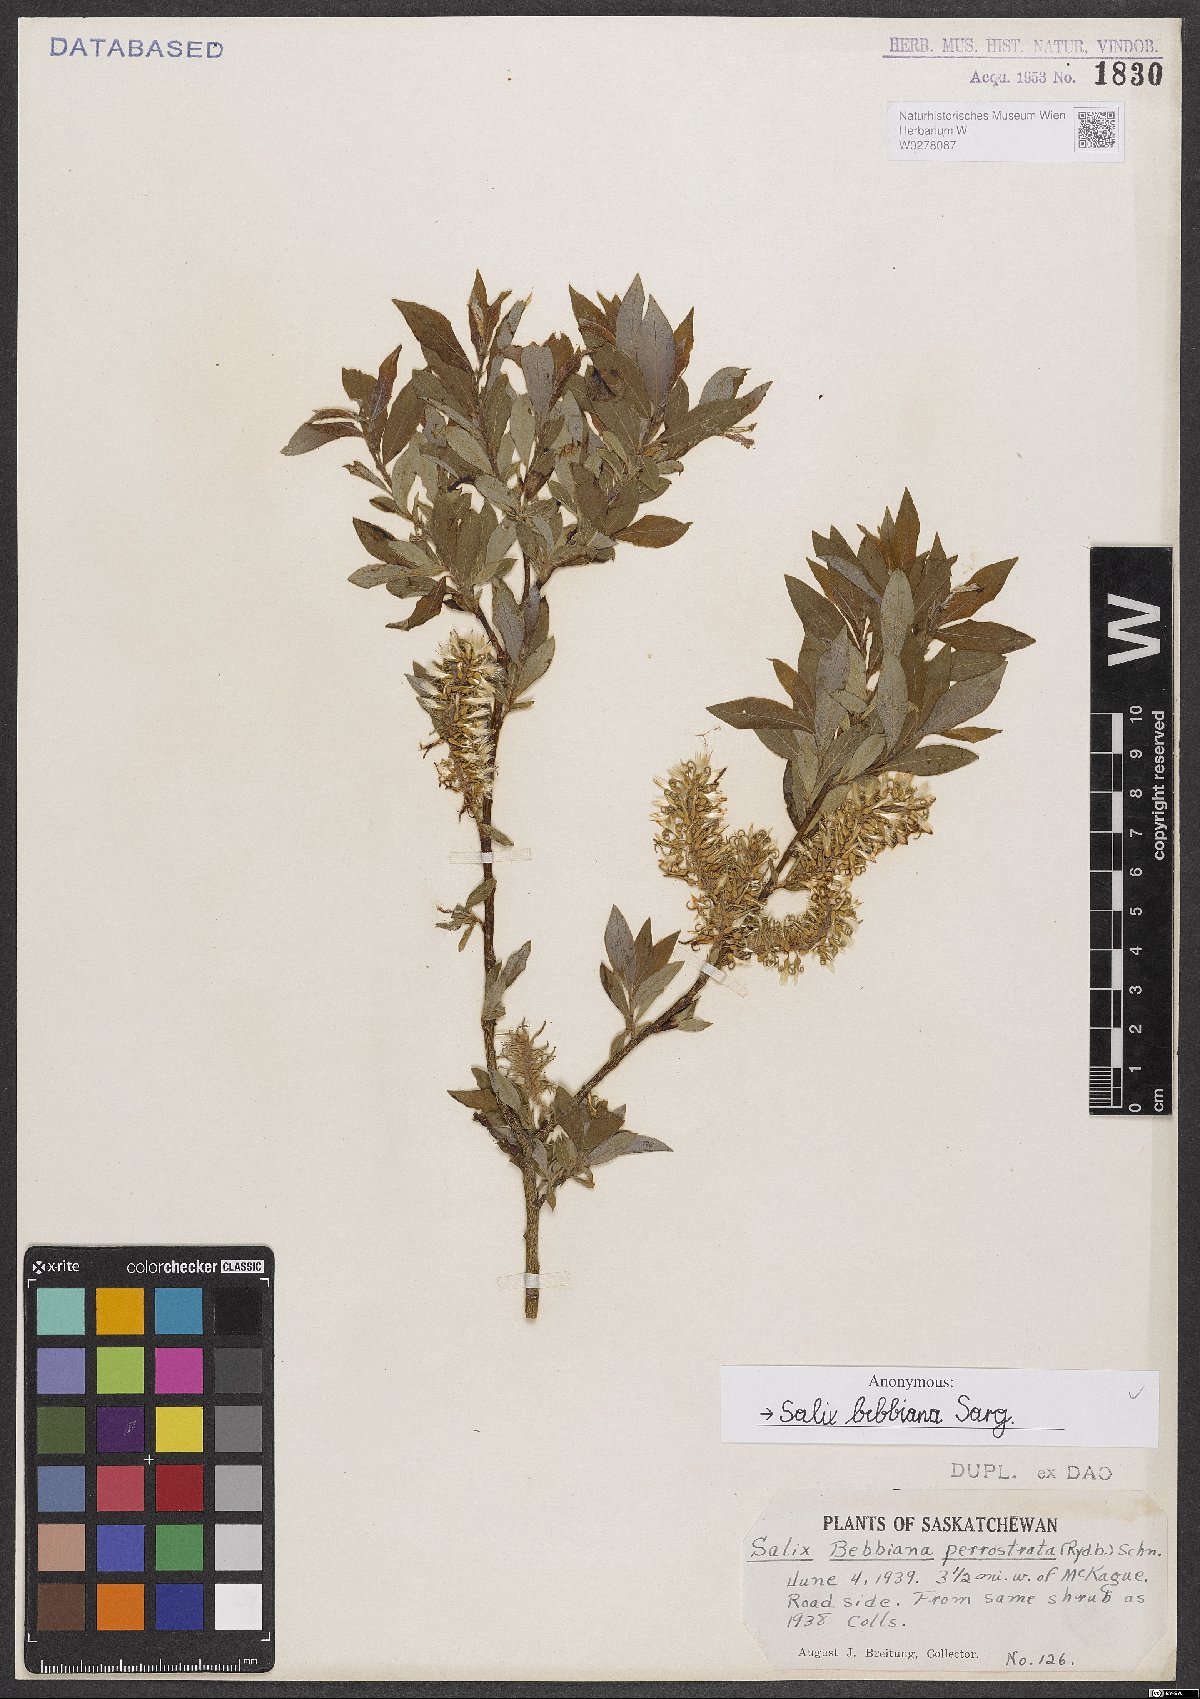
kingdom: Plantae
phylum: Tracheophyta
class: Magnoliopsida
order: Malpighiales
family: Salicaceae
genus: Salix
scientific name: Salix bebbiana
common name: Bebb's willow
